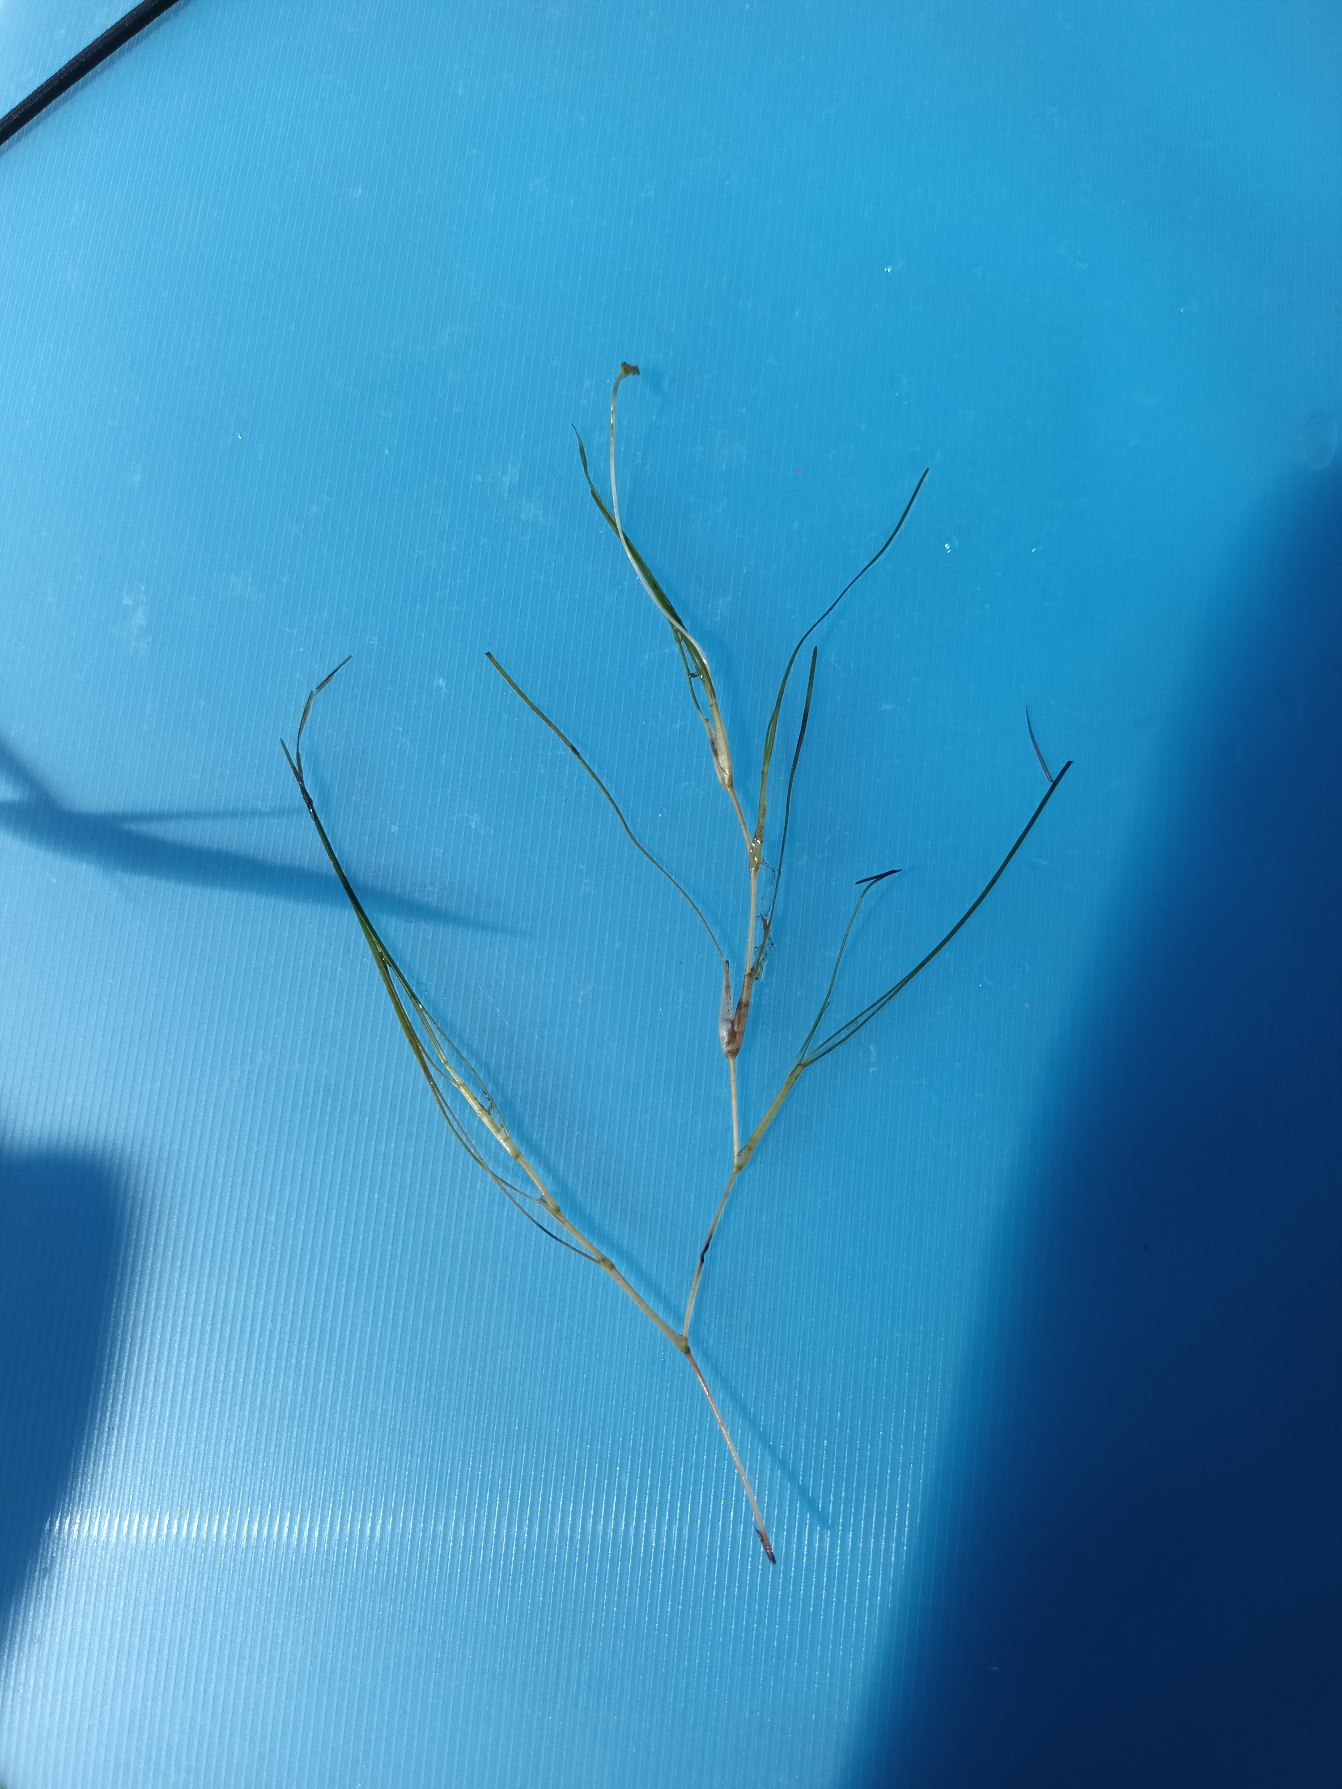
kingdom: Plantae
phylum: Tracheophyta
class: Liliopsida
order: Alismatales
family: Ruppiaceae
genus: Ruppia
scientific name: Ruppia cirrhosa
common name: Langstilket havgræs
